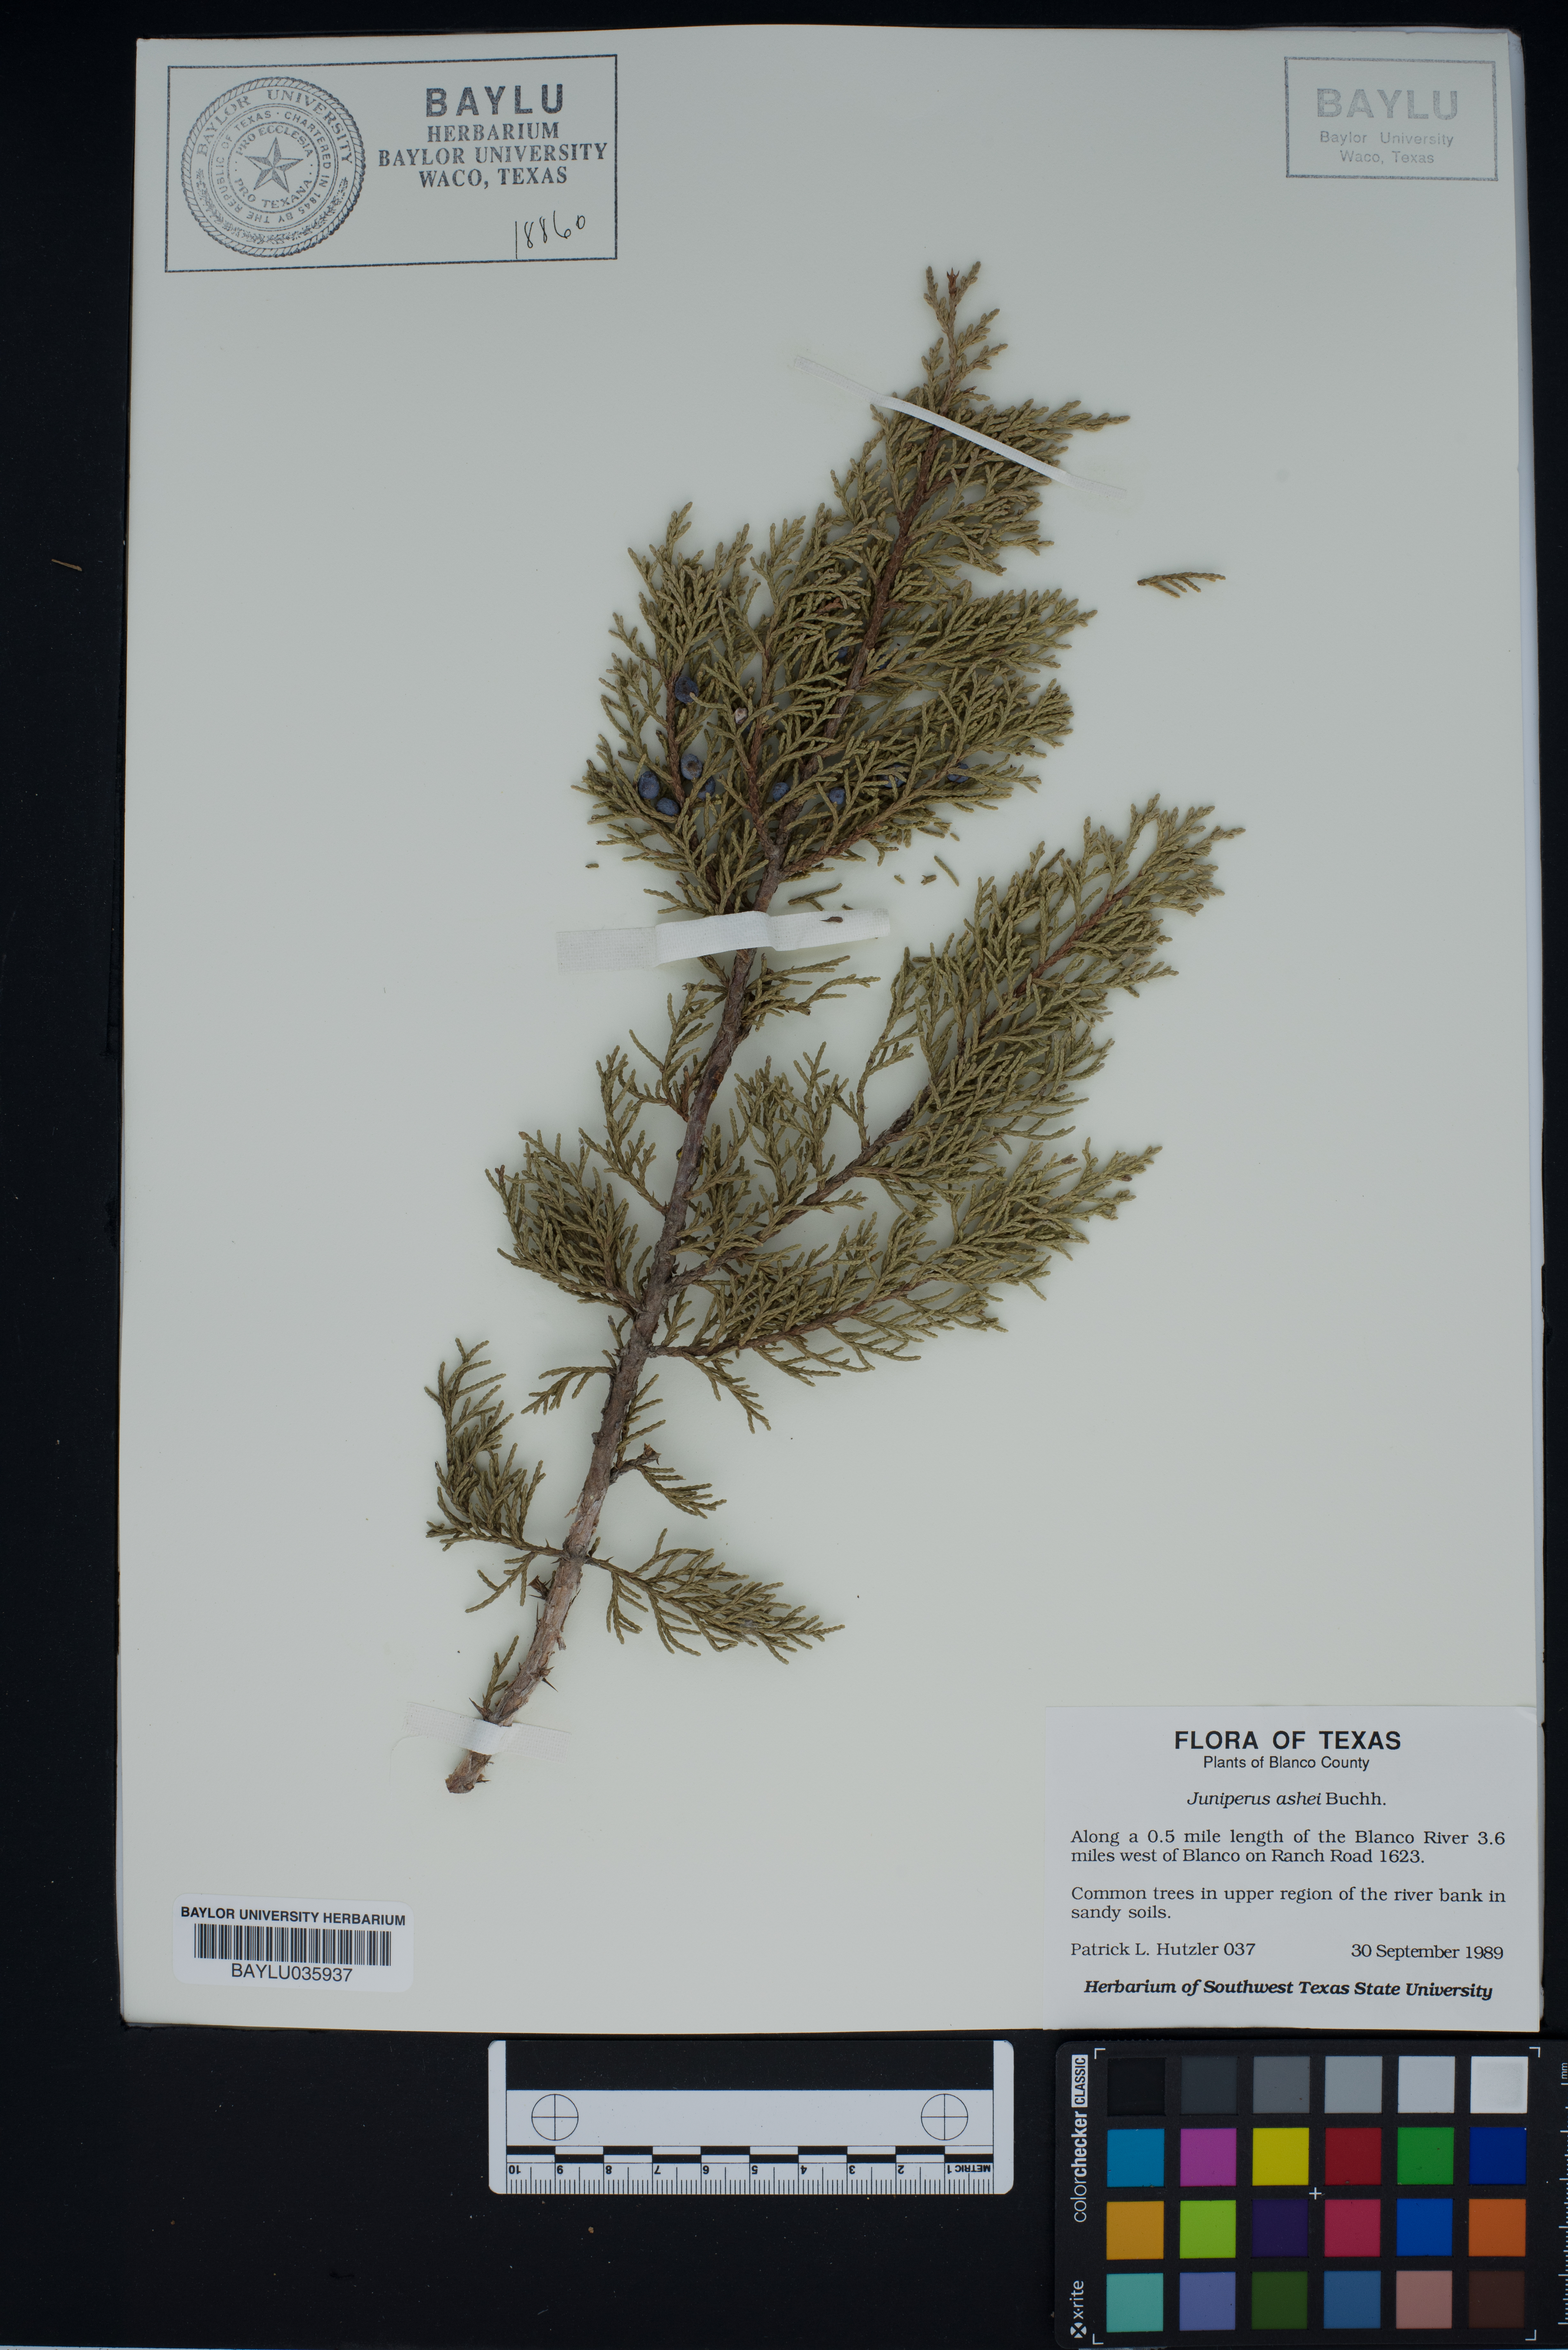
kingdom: Plantae
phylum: Tracheophyta
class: Pinopsida
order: Pinales
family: Cupressaceae
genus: Juniperus
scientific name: Juniperus ashei
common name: Mexican juniper
